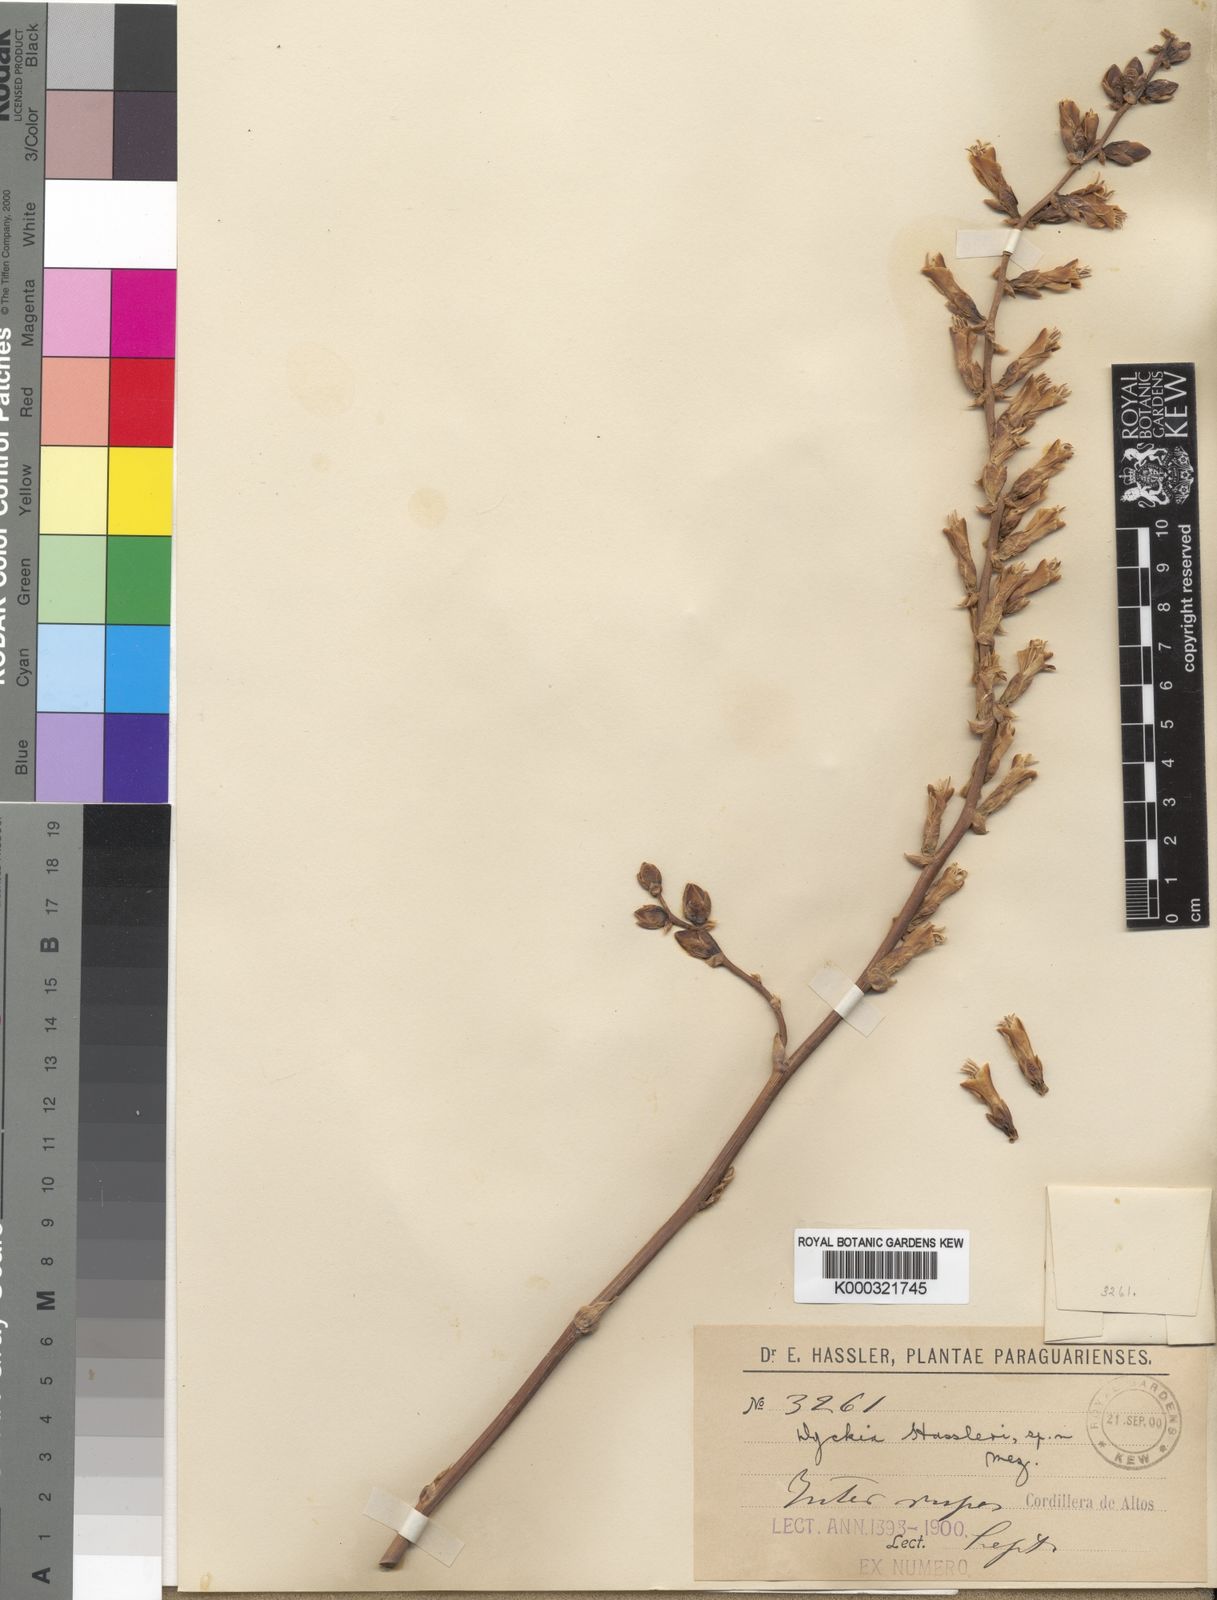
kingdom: Plantae
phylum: Tracheophyta
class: Liliopsida
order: Poales
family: Bromeliaceae
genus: Dyckia
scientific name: Dyckia leptostachya
